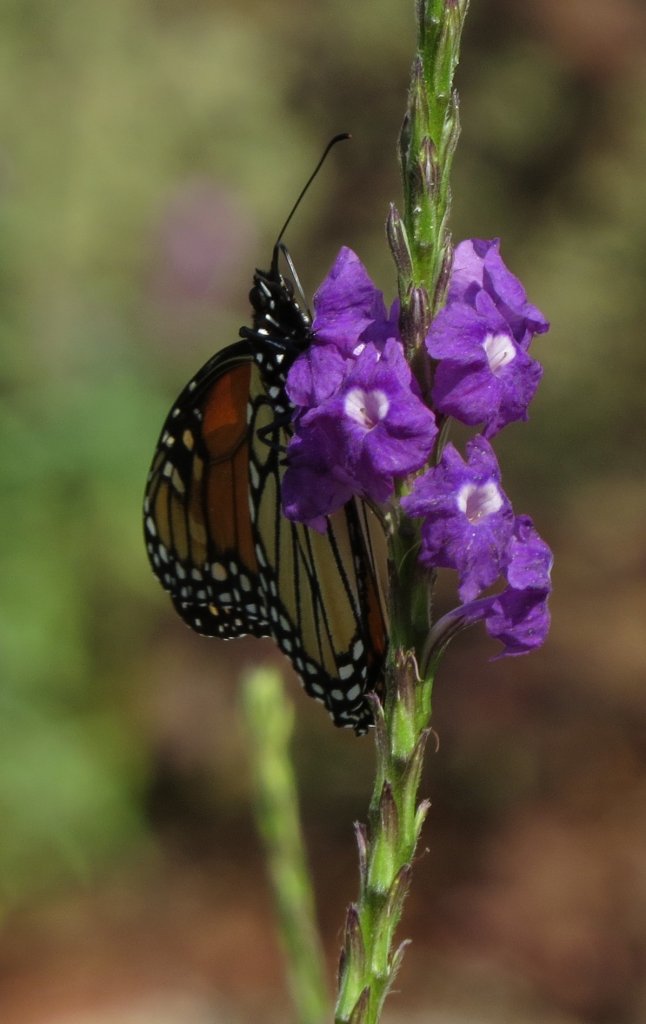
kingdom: Animalia
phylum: Arthropoda
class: Insecta
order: Lepidoptera
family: Nymphalidae
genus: Danaus
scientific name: Danaus plexippus
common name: Monarch
